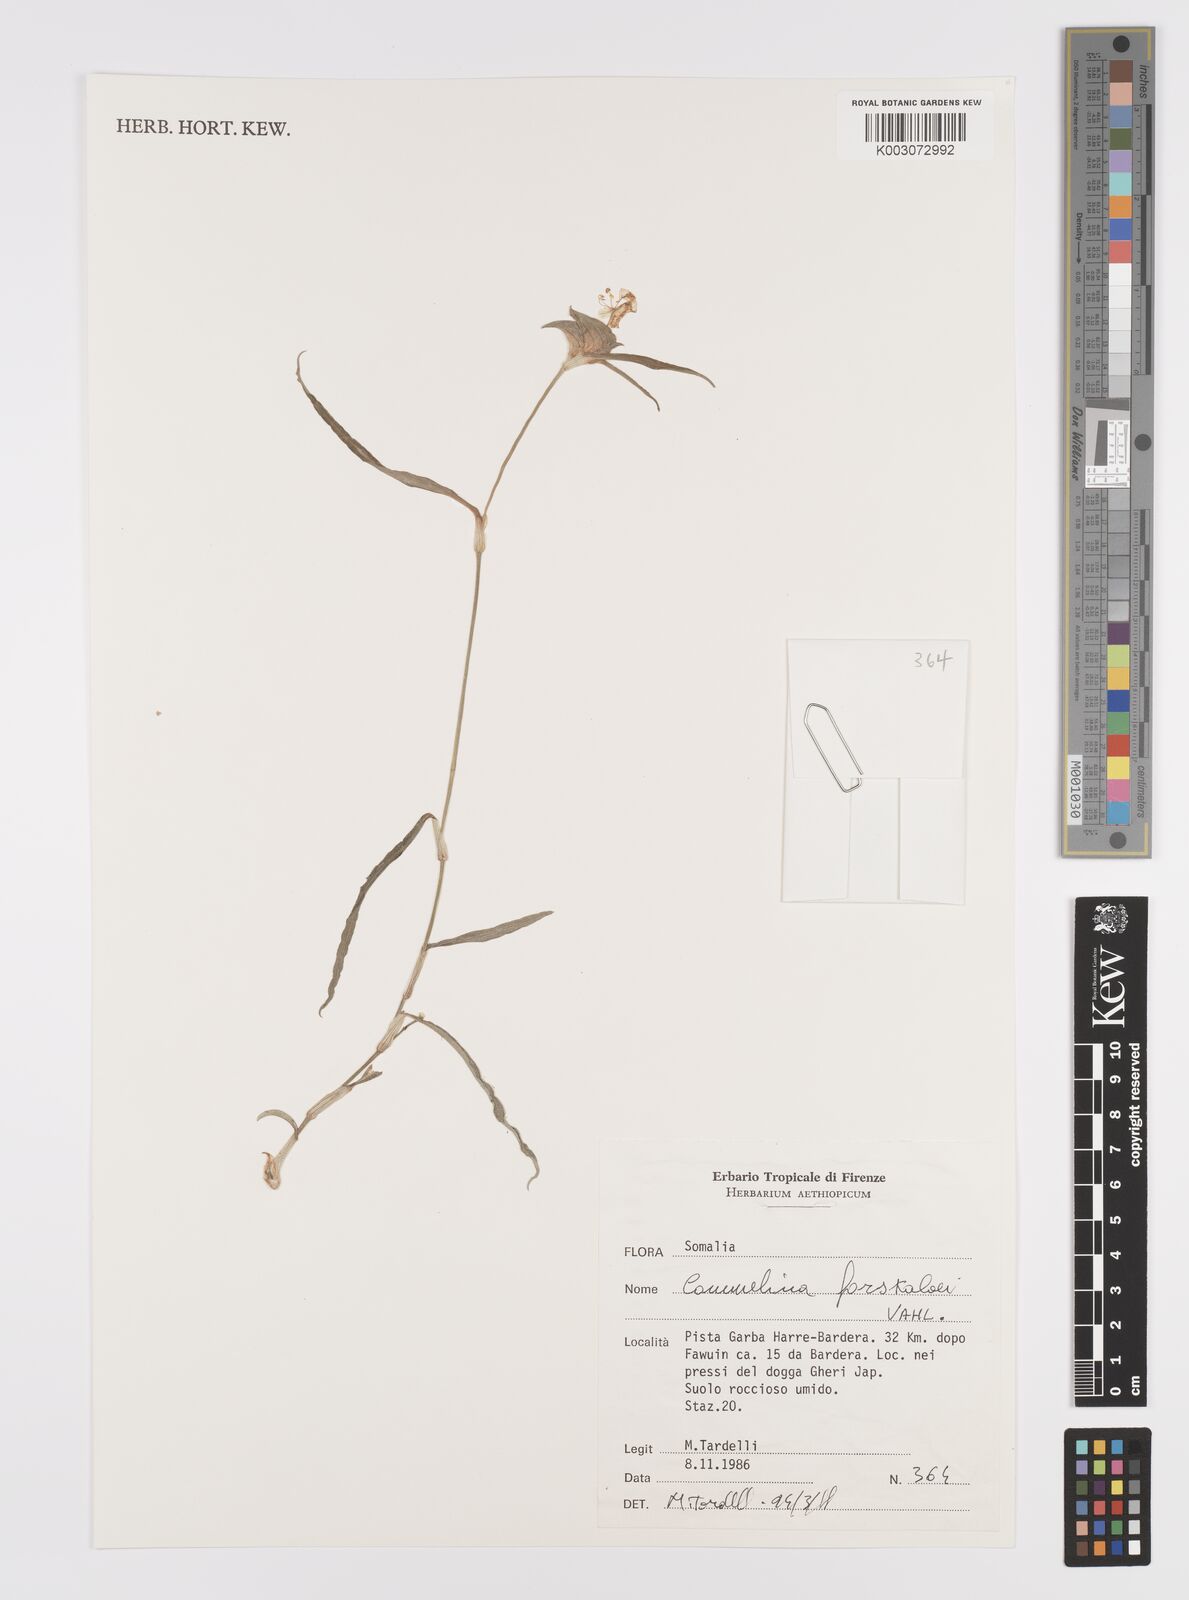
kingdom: Plantae
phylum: Tracheophyta
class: Liliopsida
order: Commelinales
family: Commelinaceae
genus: Commelina
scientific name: Commelina forskaolii
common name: Rat's ear
